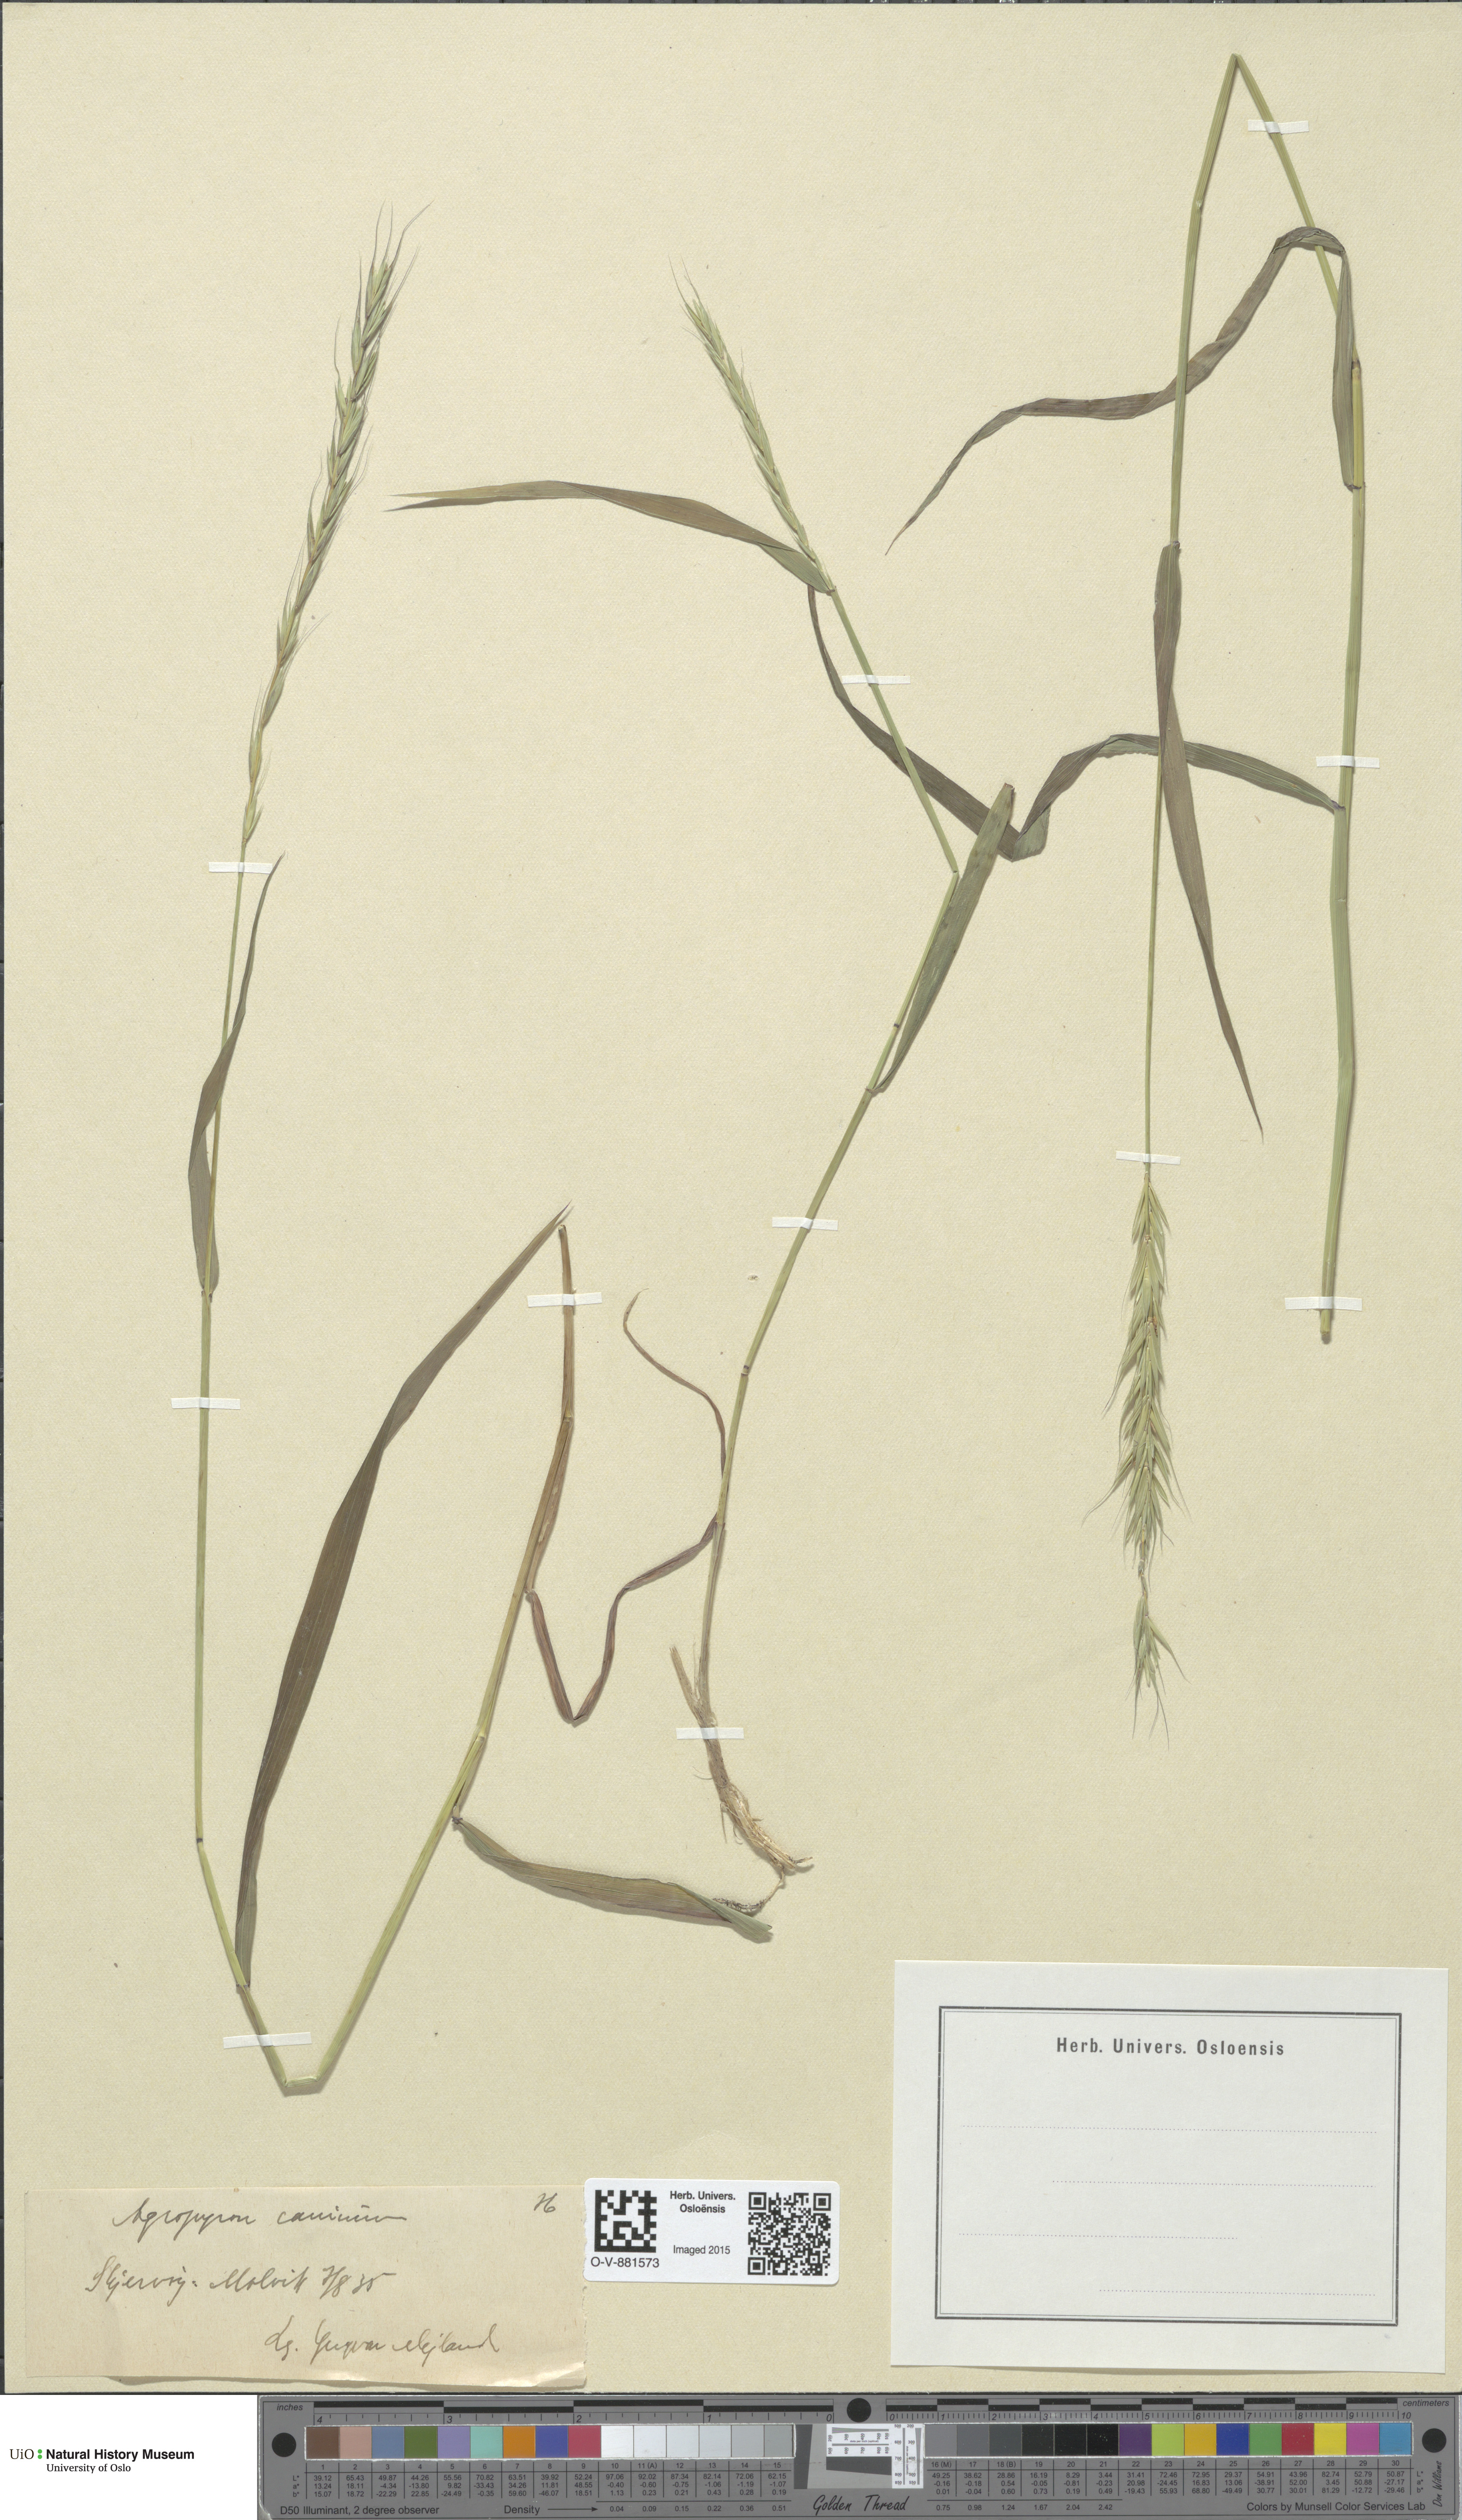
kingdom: Plantae
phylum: Tracheophyta
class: Liliopsida
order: Poales
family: Poaceae
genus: Elymus
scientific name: Elymus caninus
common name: Bearded couch
